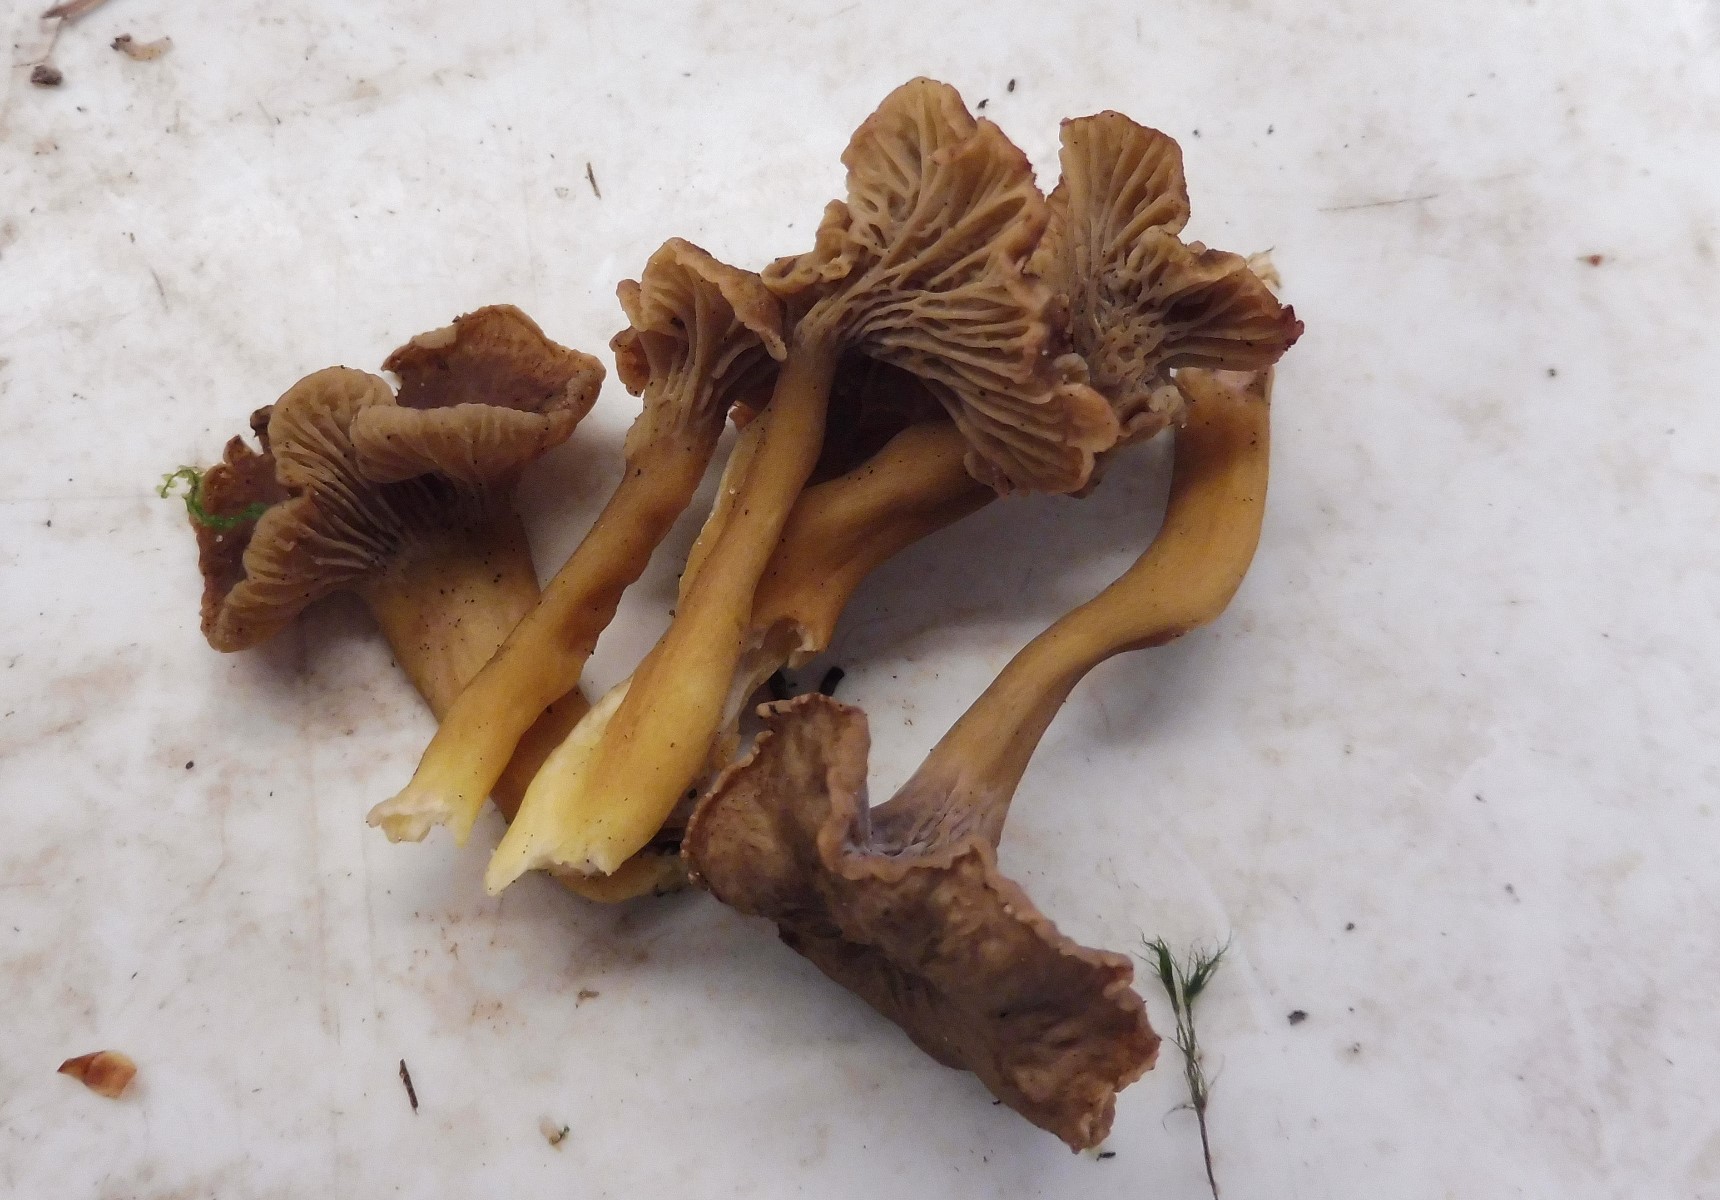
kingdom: Fungi
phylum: Basidiomycota
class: Agaricomycetes
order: Cantharellales
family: Hydnaceae
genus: Craterellus
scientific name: Craterellus tubaeformis
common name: tragt-kantarel
